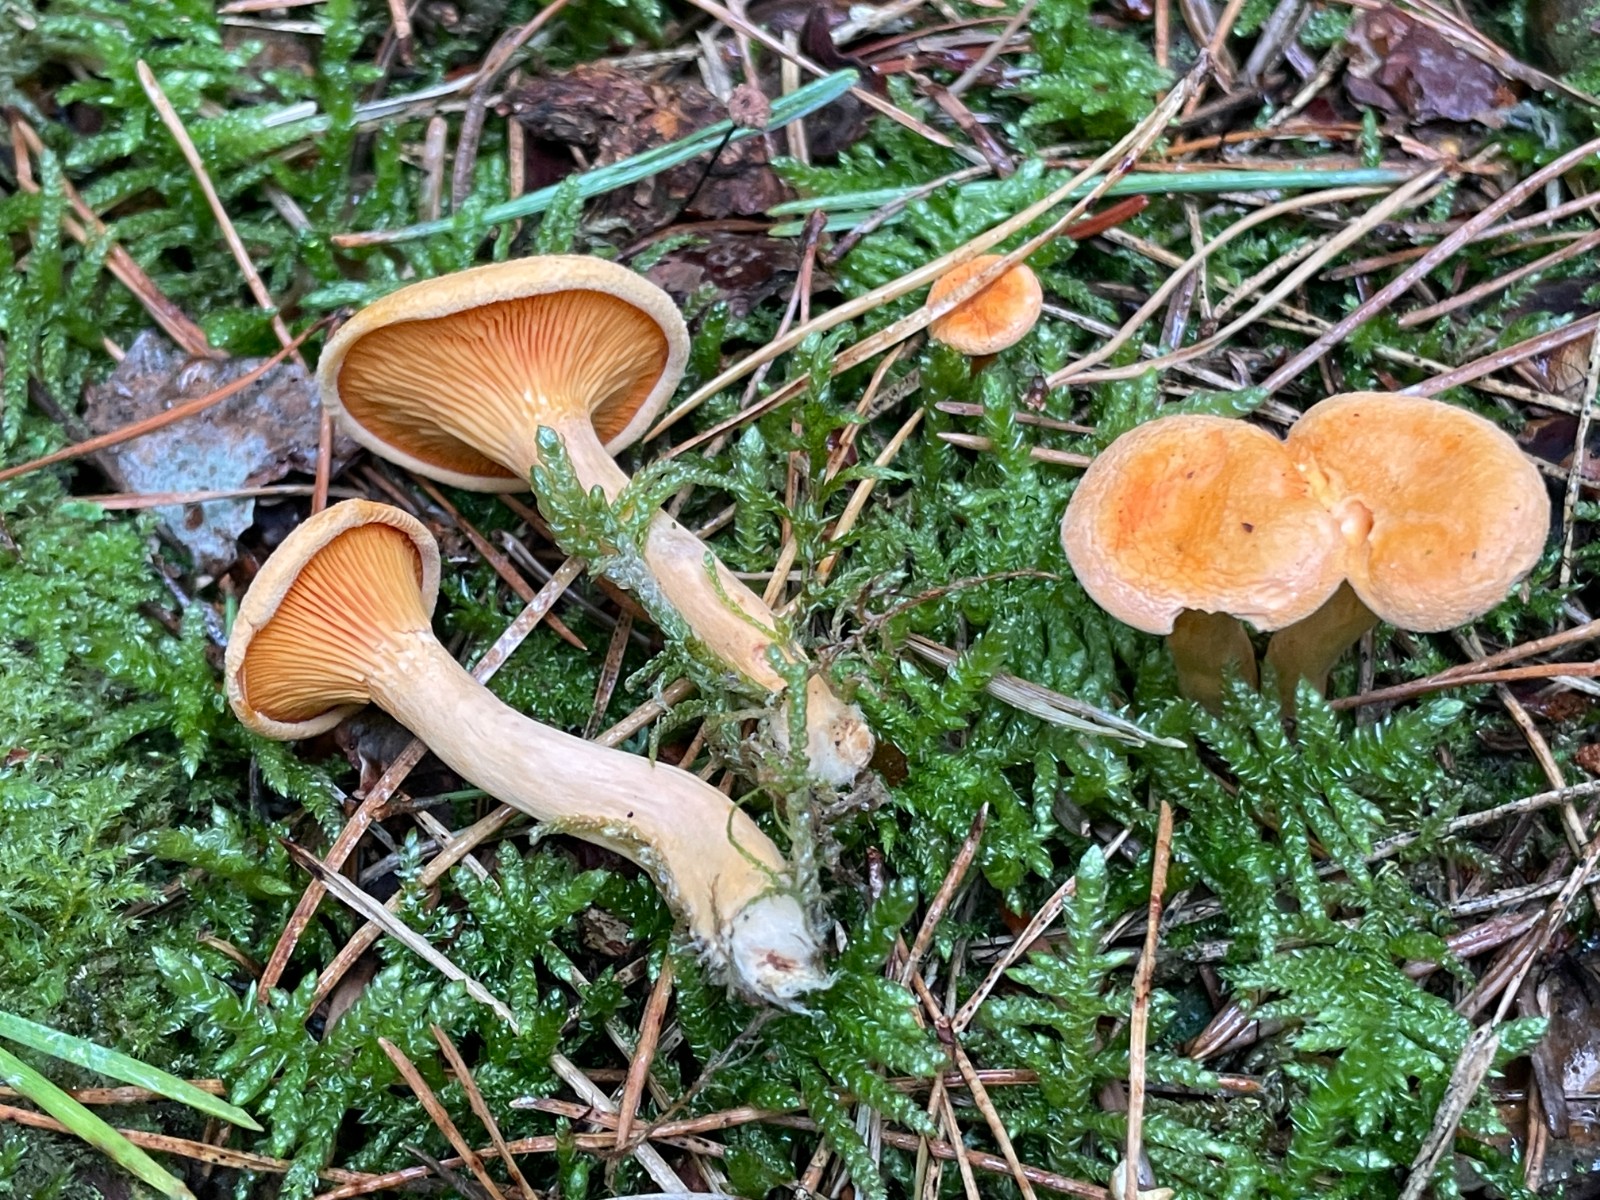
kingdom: Fungi
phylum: Basidiomycota
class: Agaricomycetes
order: Boletales
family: Hygrophoropsidaceae
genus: Hygrophoropsis
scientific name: Hygrophoropsis aurantiaca
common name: almindelig orangekantarel
